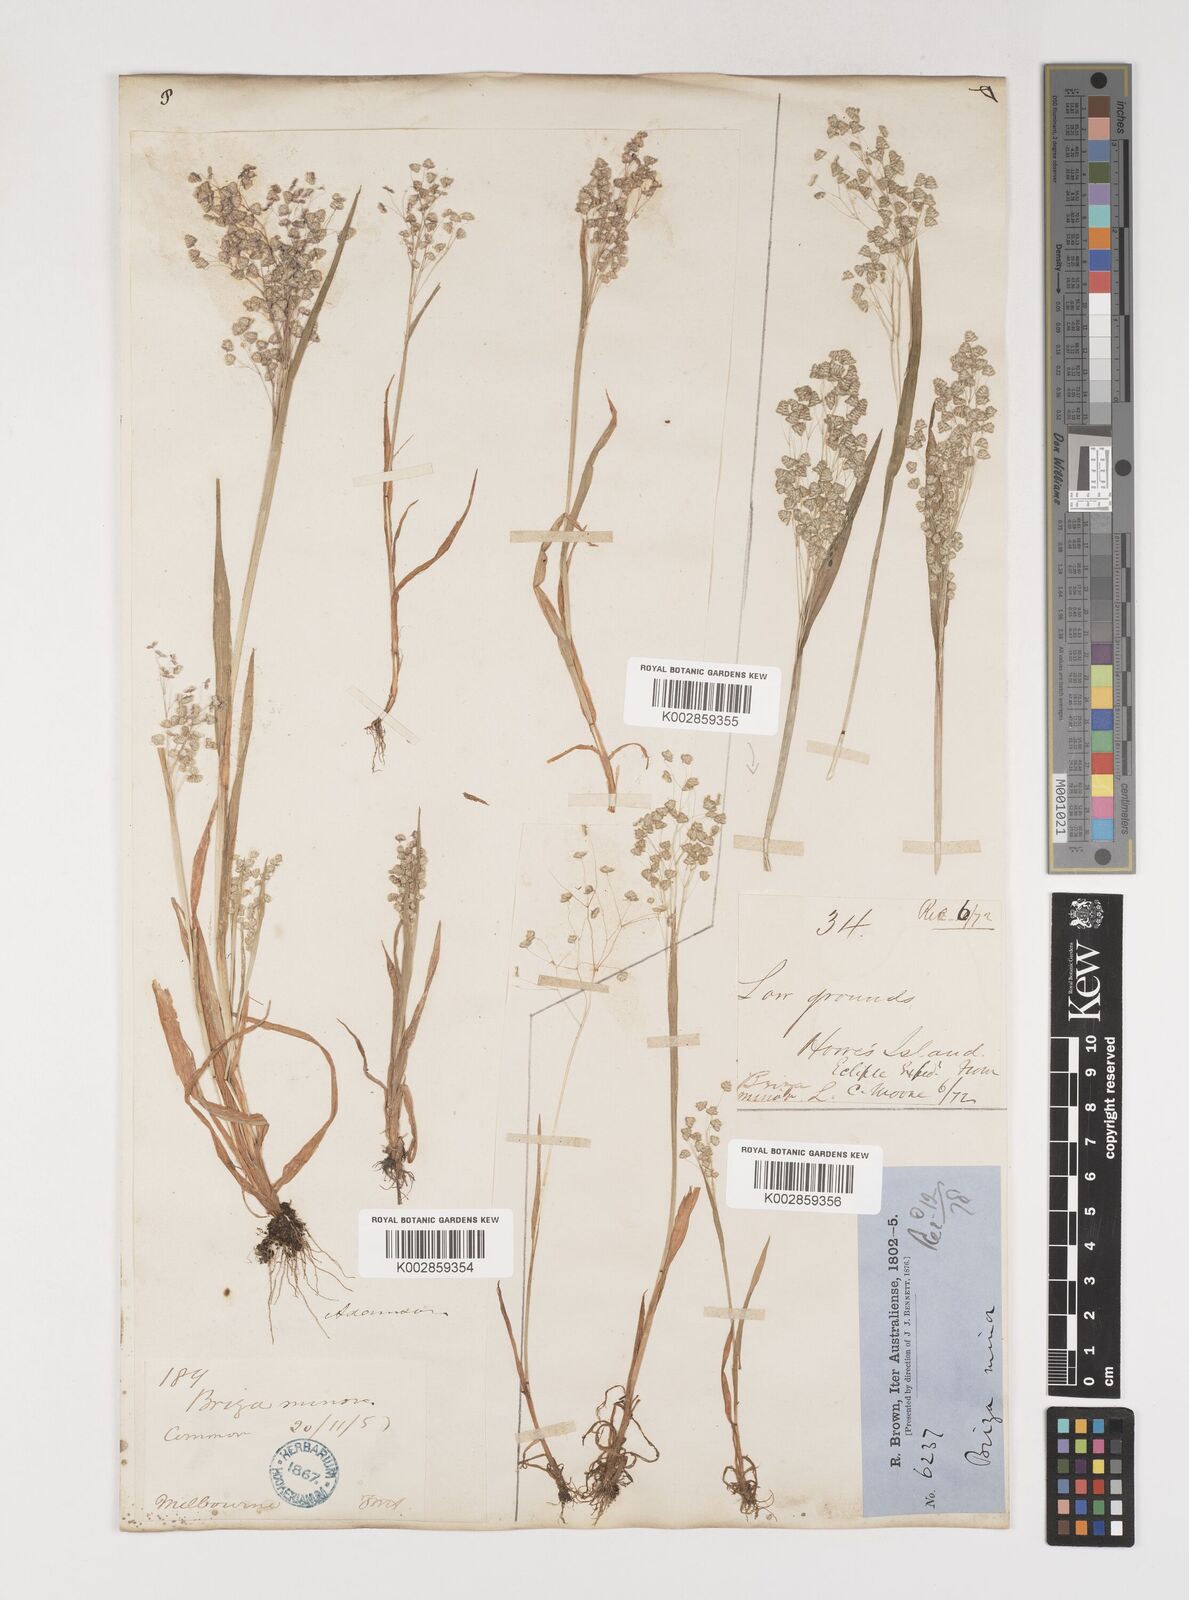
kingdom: Plantae
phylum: Tracheophyta
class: Liliopsida
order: Poales
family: Poaceae
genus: Briza
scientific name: Briza minor
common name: Lesser quaking-grass
